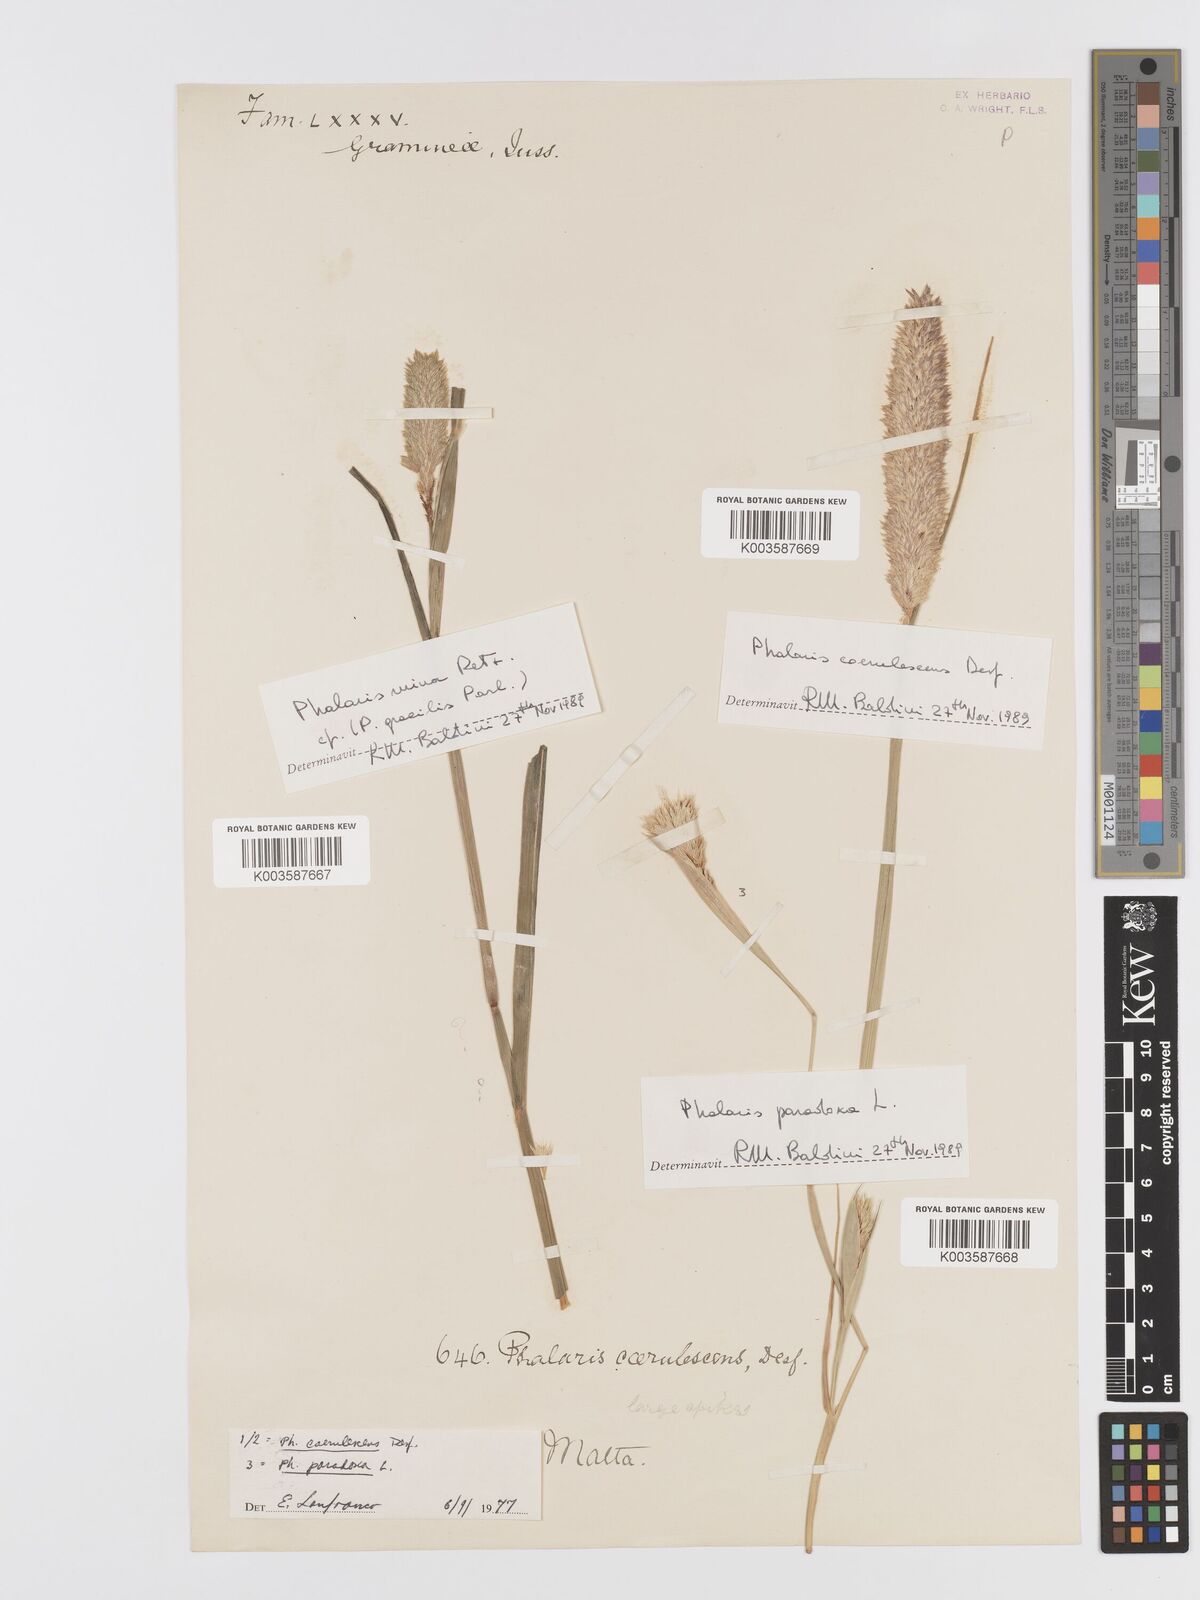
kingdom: Plantae
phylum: Tracheophyta
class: Liliopsida
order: Poales
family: Poaceae
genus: Phalaris
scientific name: Phalaris coerulescens
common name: Sunolgrass
